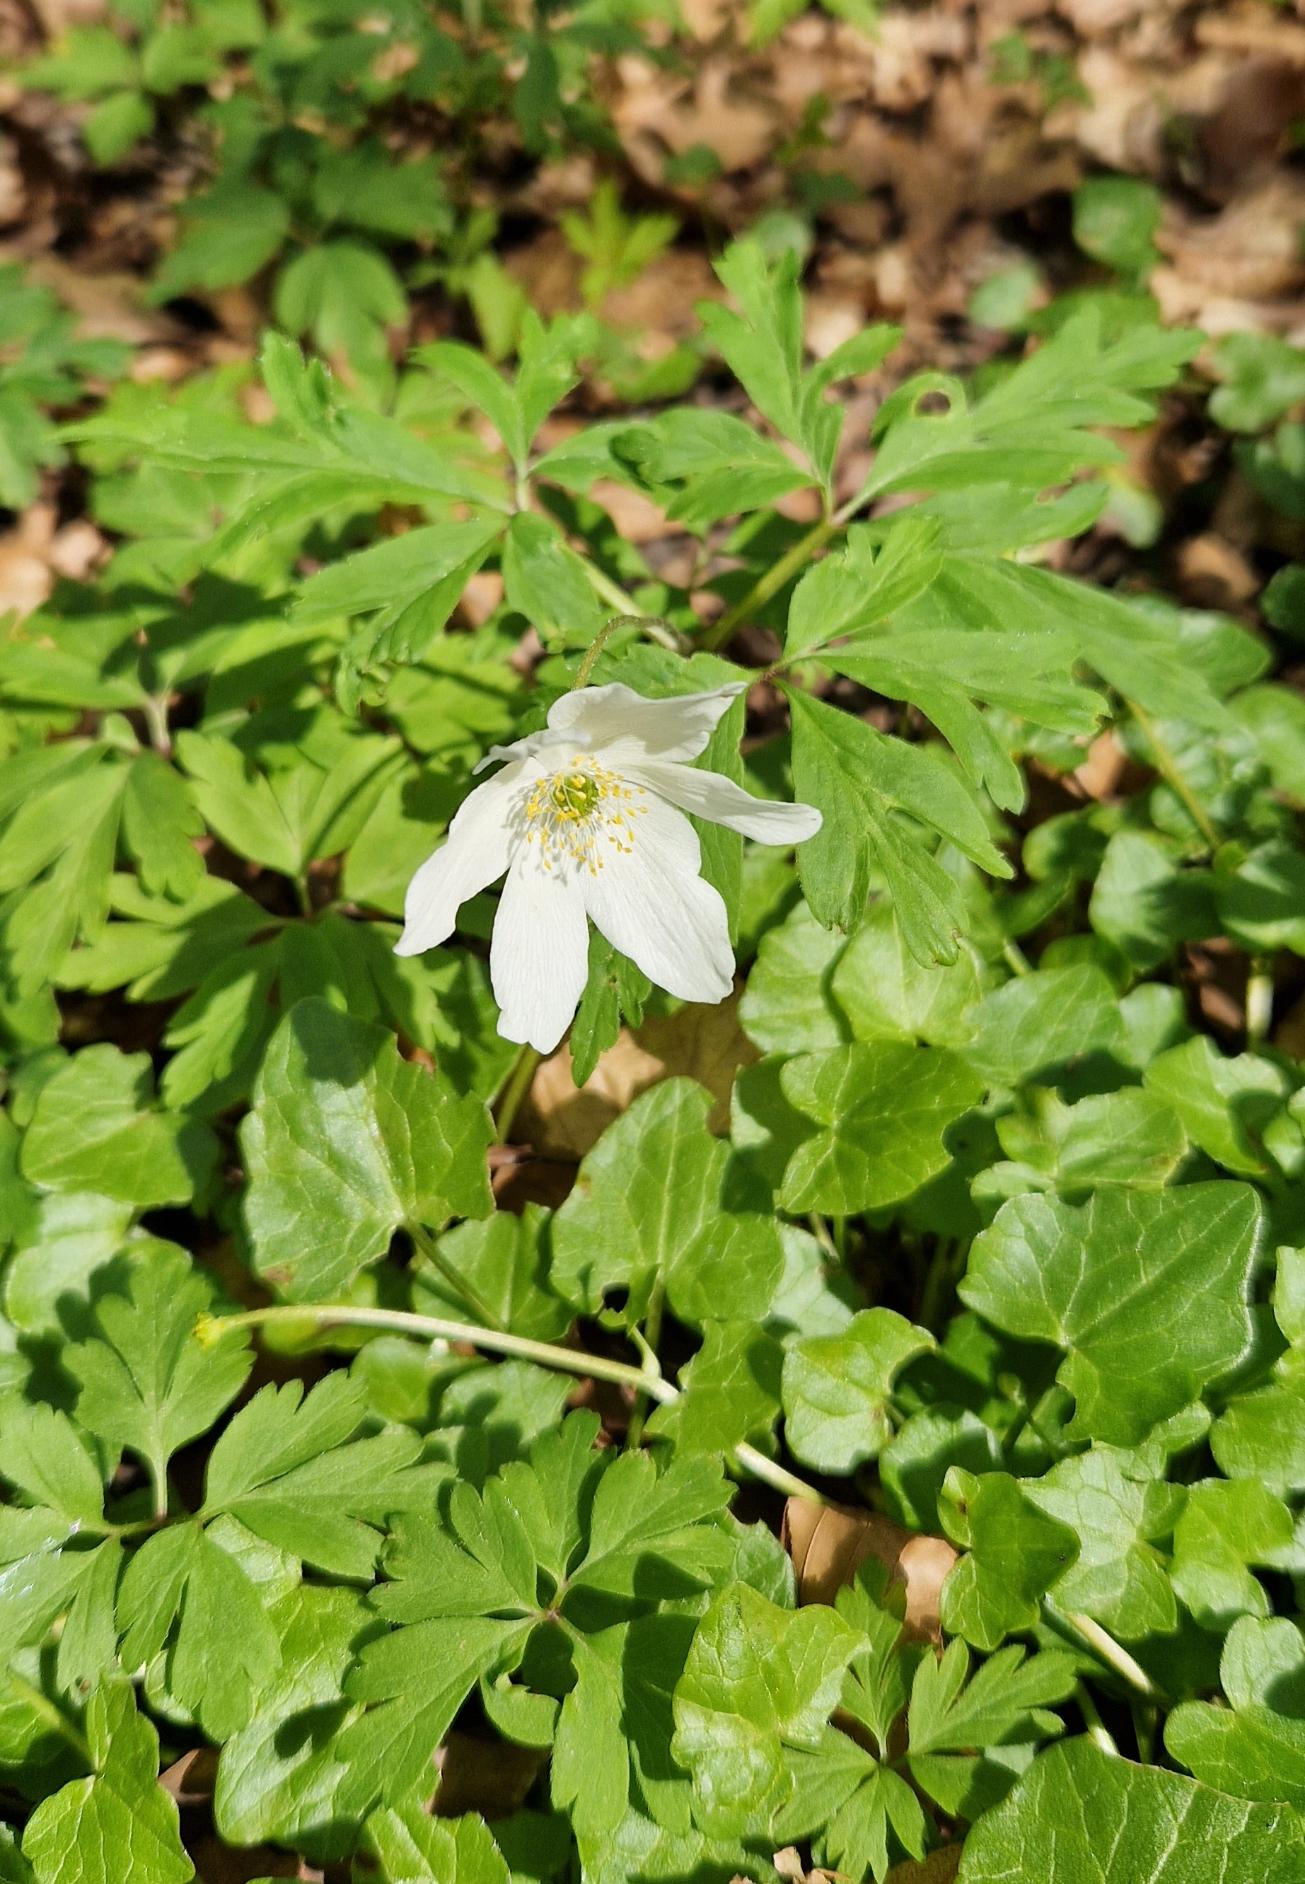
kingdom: Plantae
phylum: Tracheophyta
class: Magnoliopsida
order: Ranunculales
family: Ranunculaceae
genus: Anemone
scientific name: Anemone nemorosa
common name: Hvid anemone
